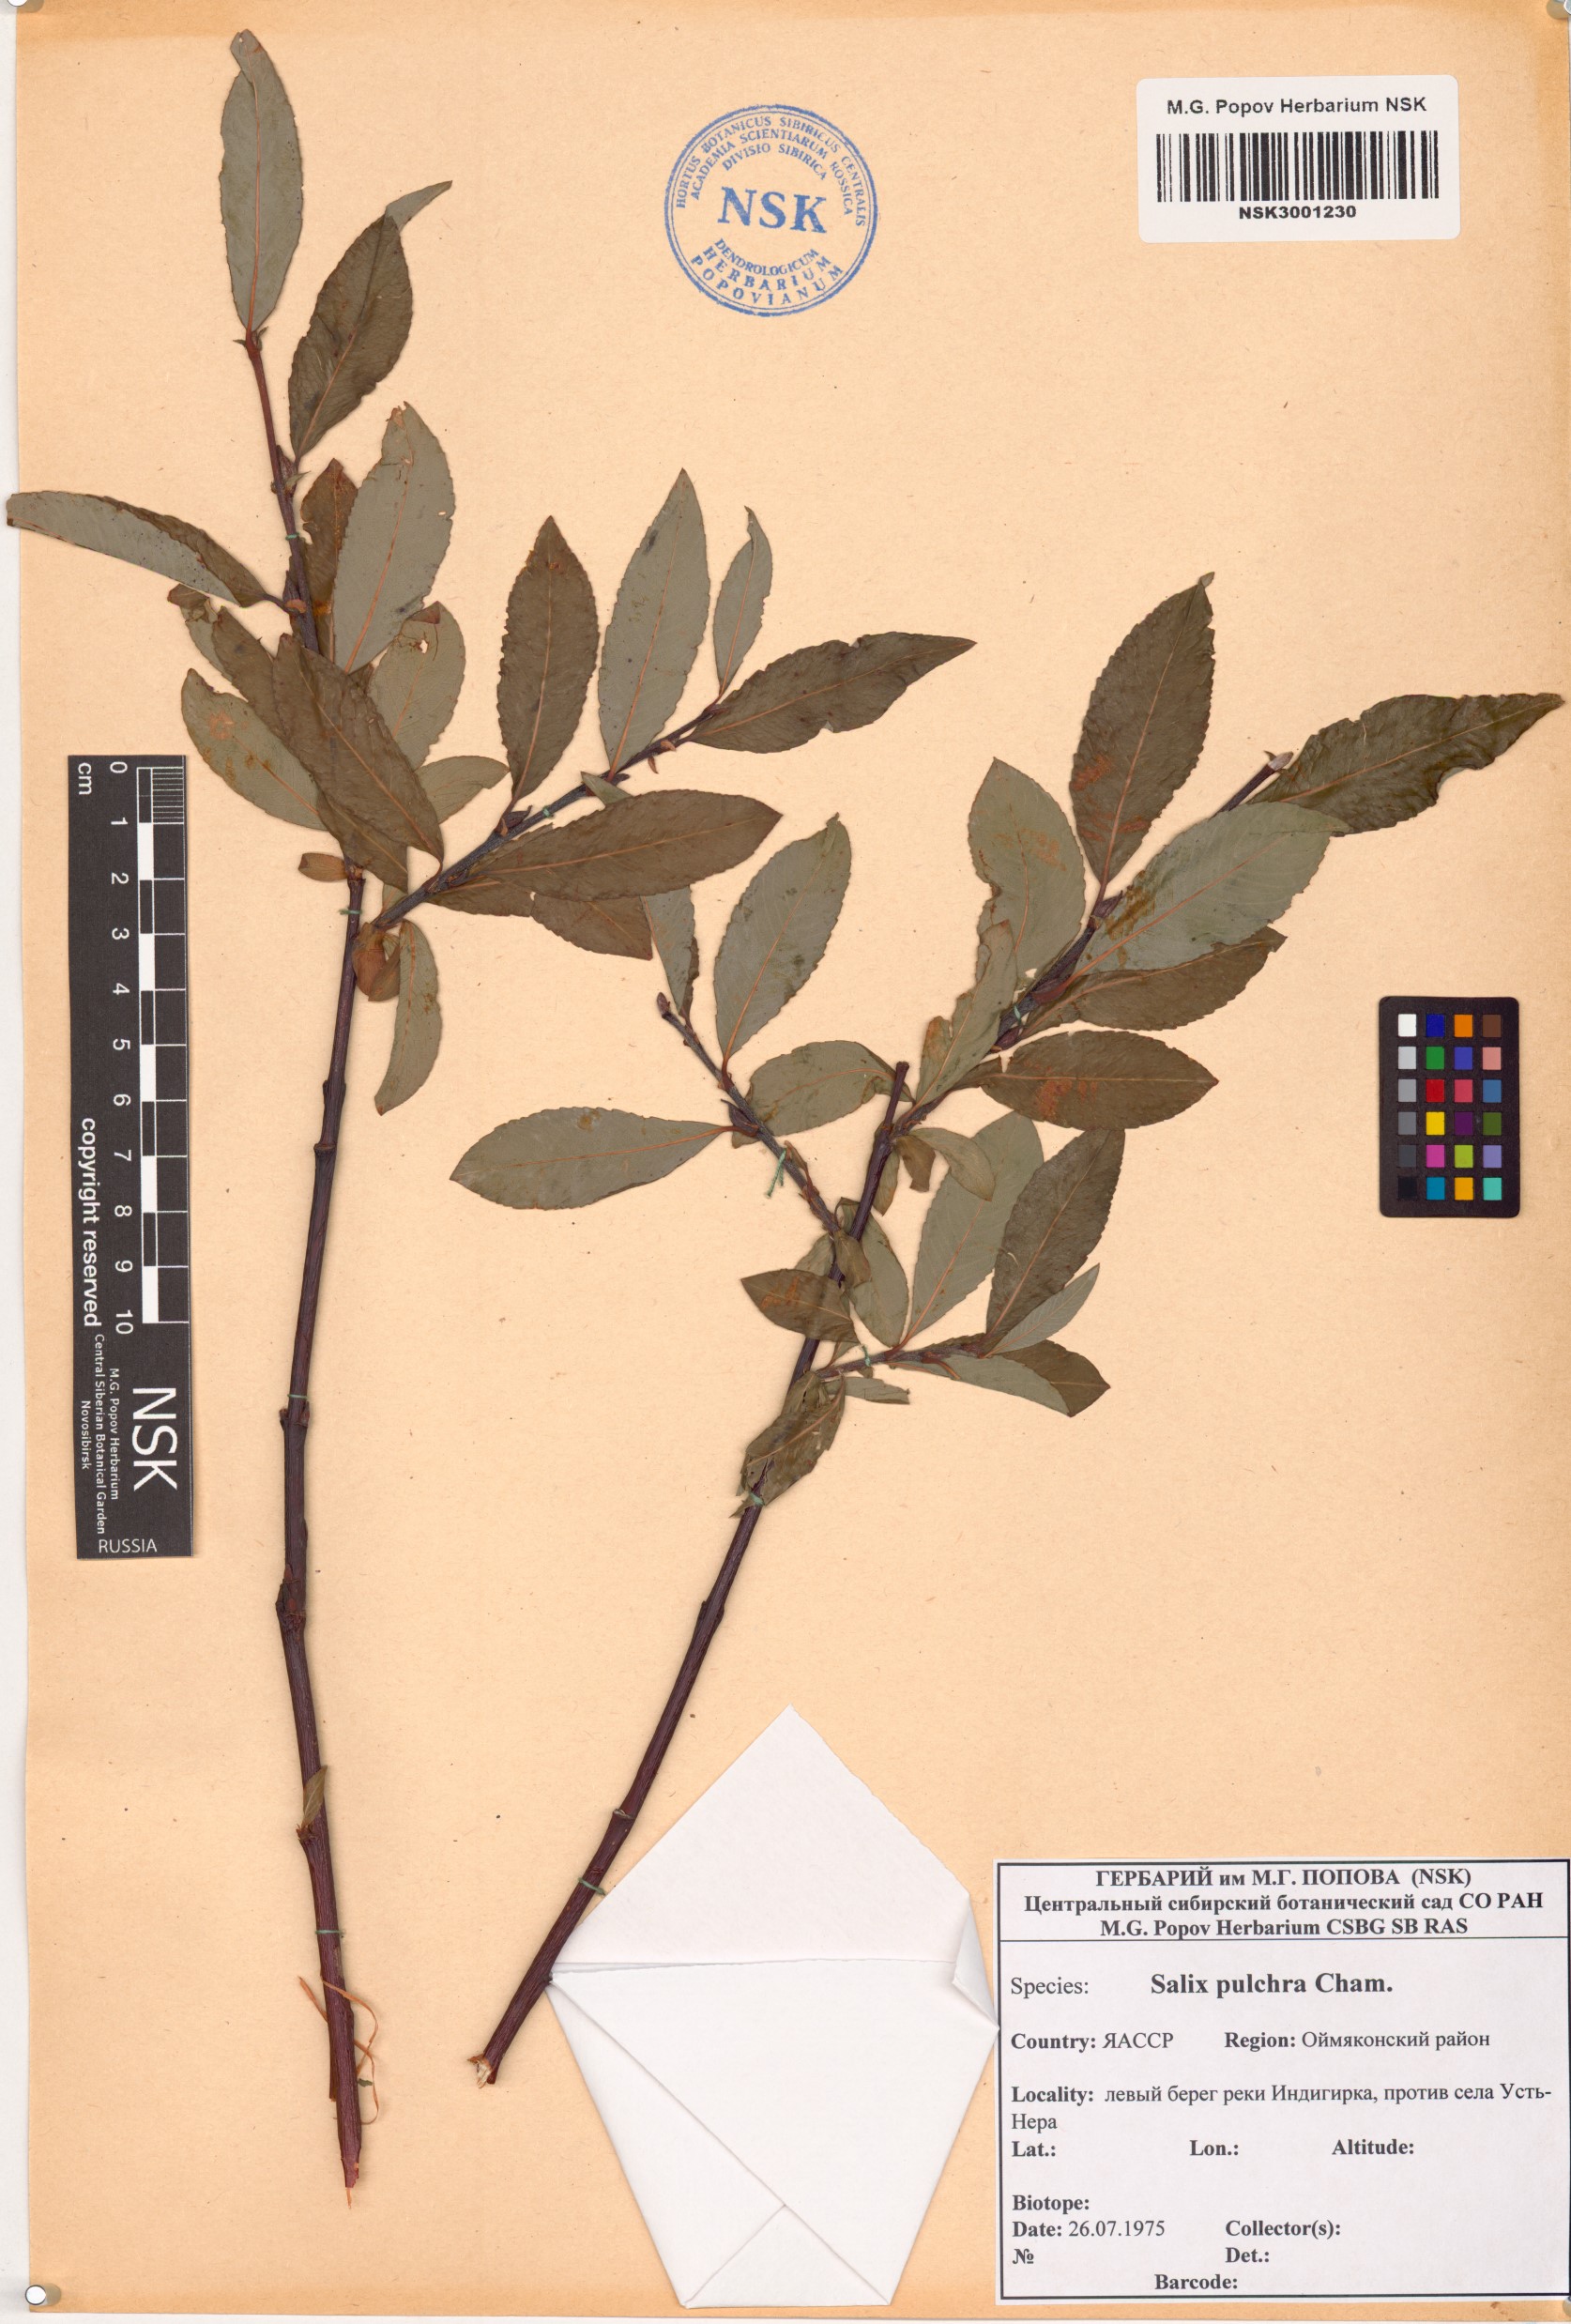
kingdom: Plantae
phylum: Tracheophyta
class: Magnoliopsida
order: Malpighiales
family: Salicaceae
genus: Salix
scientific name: Salix pulchra
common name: Diamond-leaved willow
